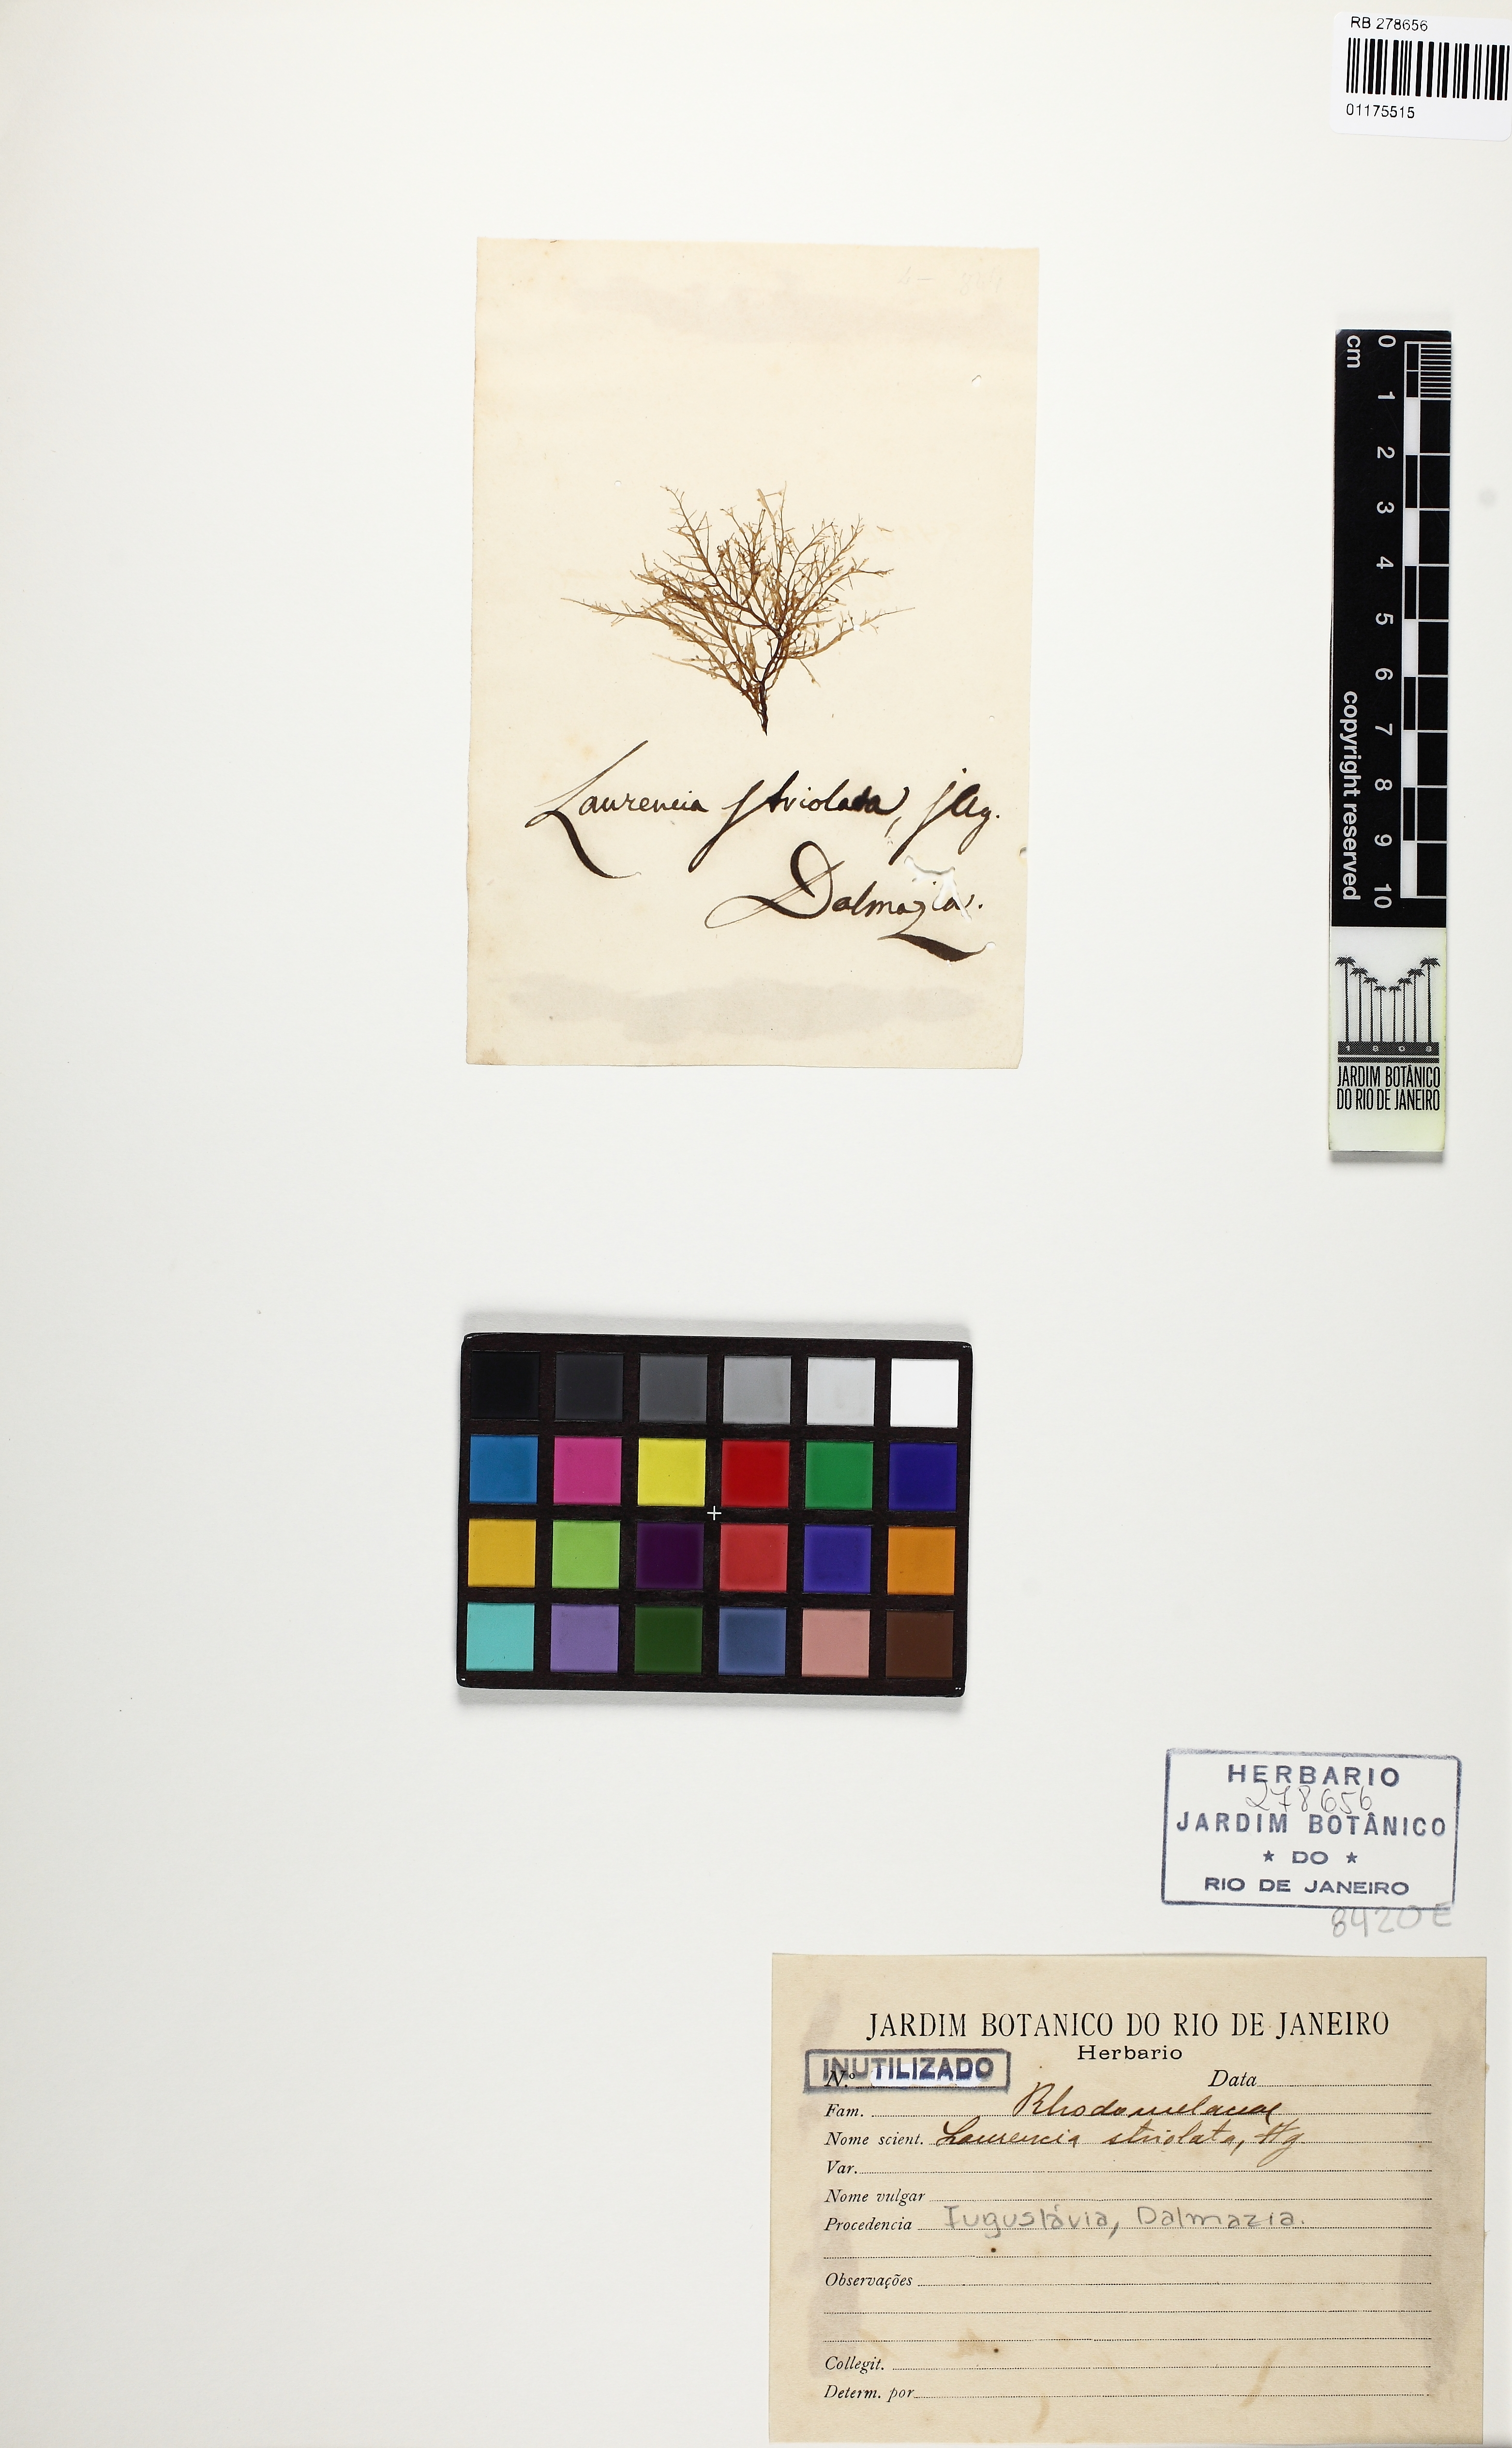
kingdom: Plantae
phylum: Rhodophyta
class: Florideophyceae
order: Ceramiales
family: Rhodomelaceae
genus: Laurencia
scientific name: Laurencia
